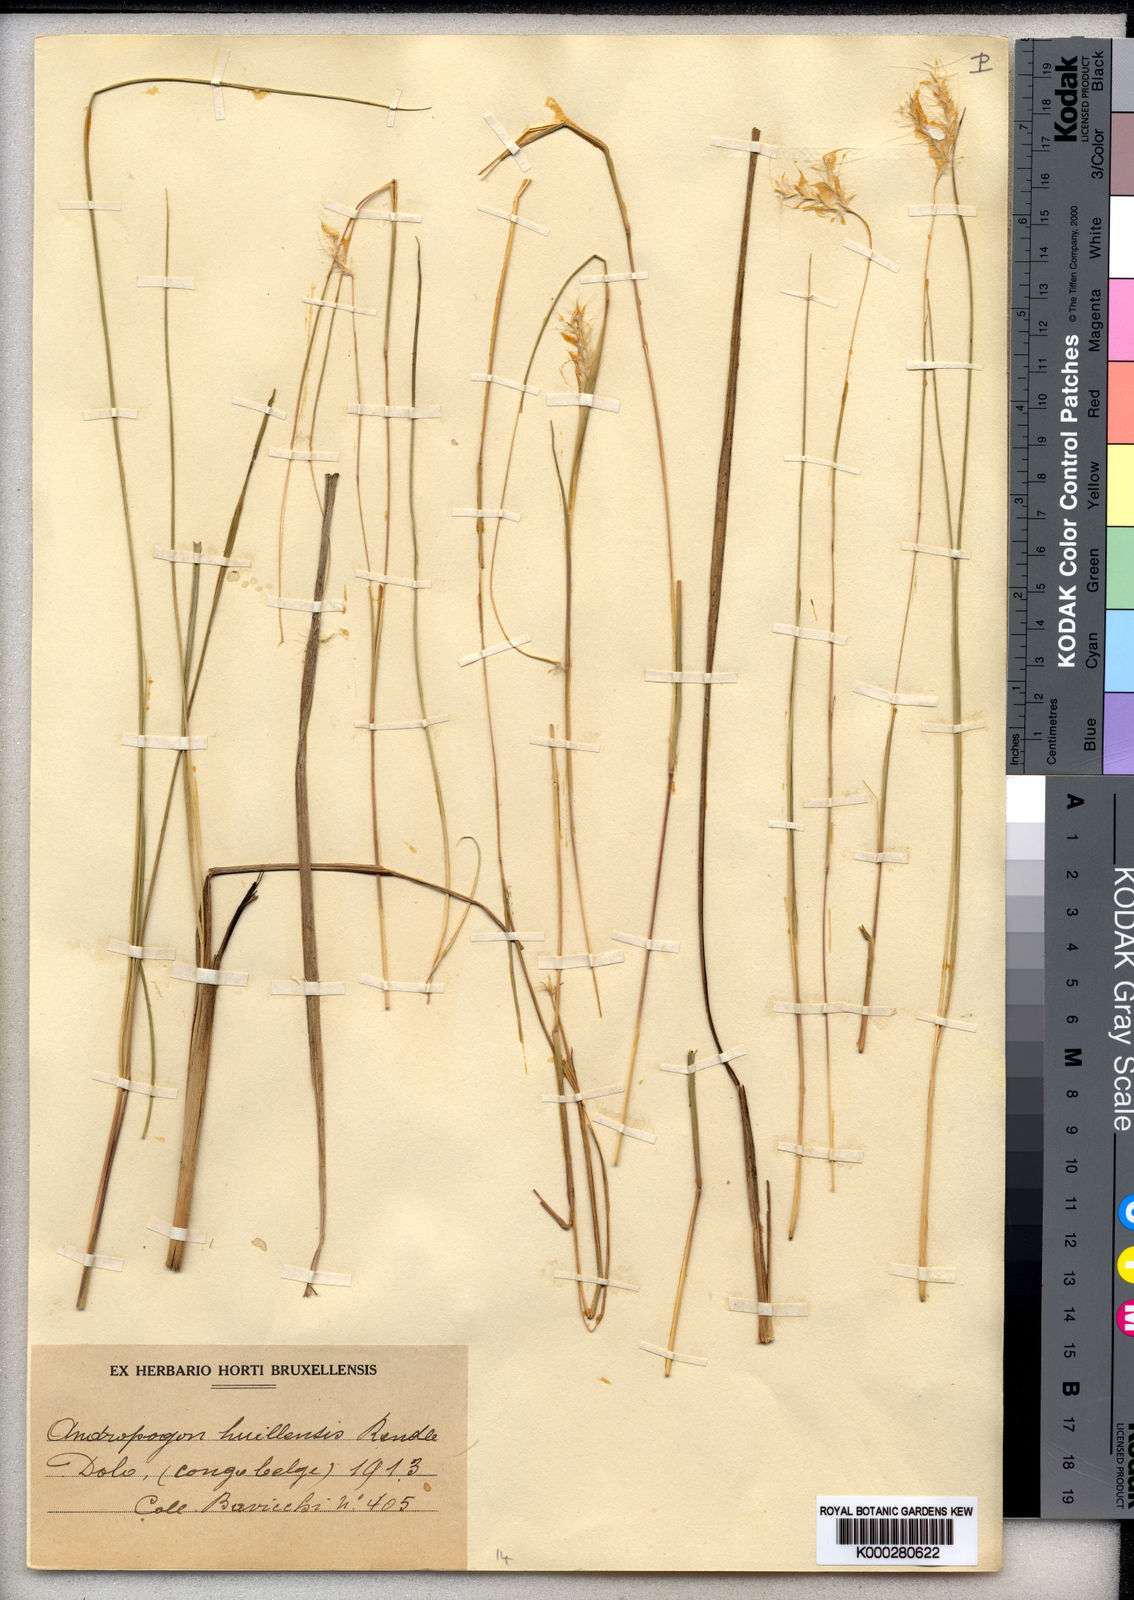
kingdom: Plantae
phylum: Tracheophyta
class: Liliopsida
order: Poales
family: Poaceae
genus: Andropogon
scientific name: Andropogon eucomus
